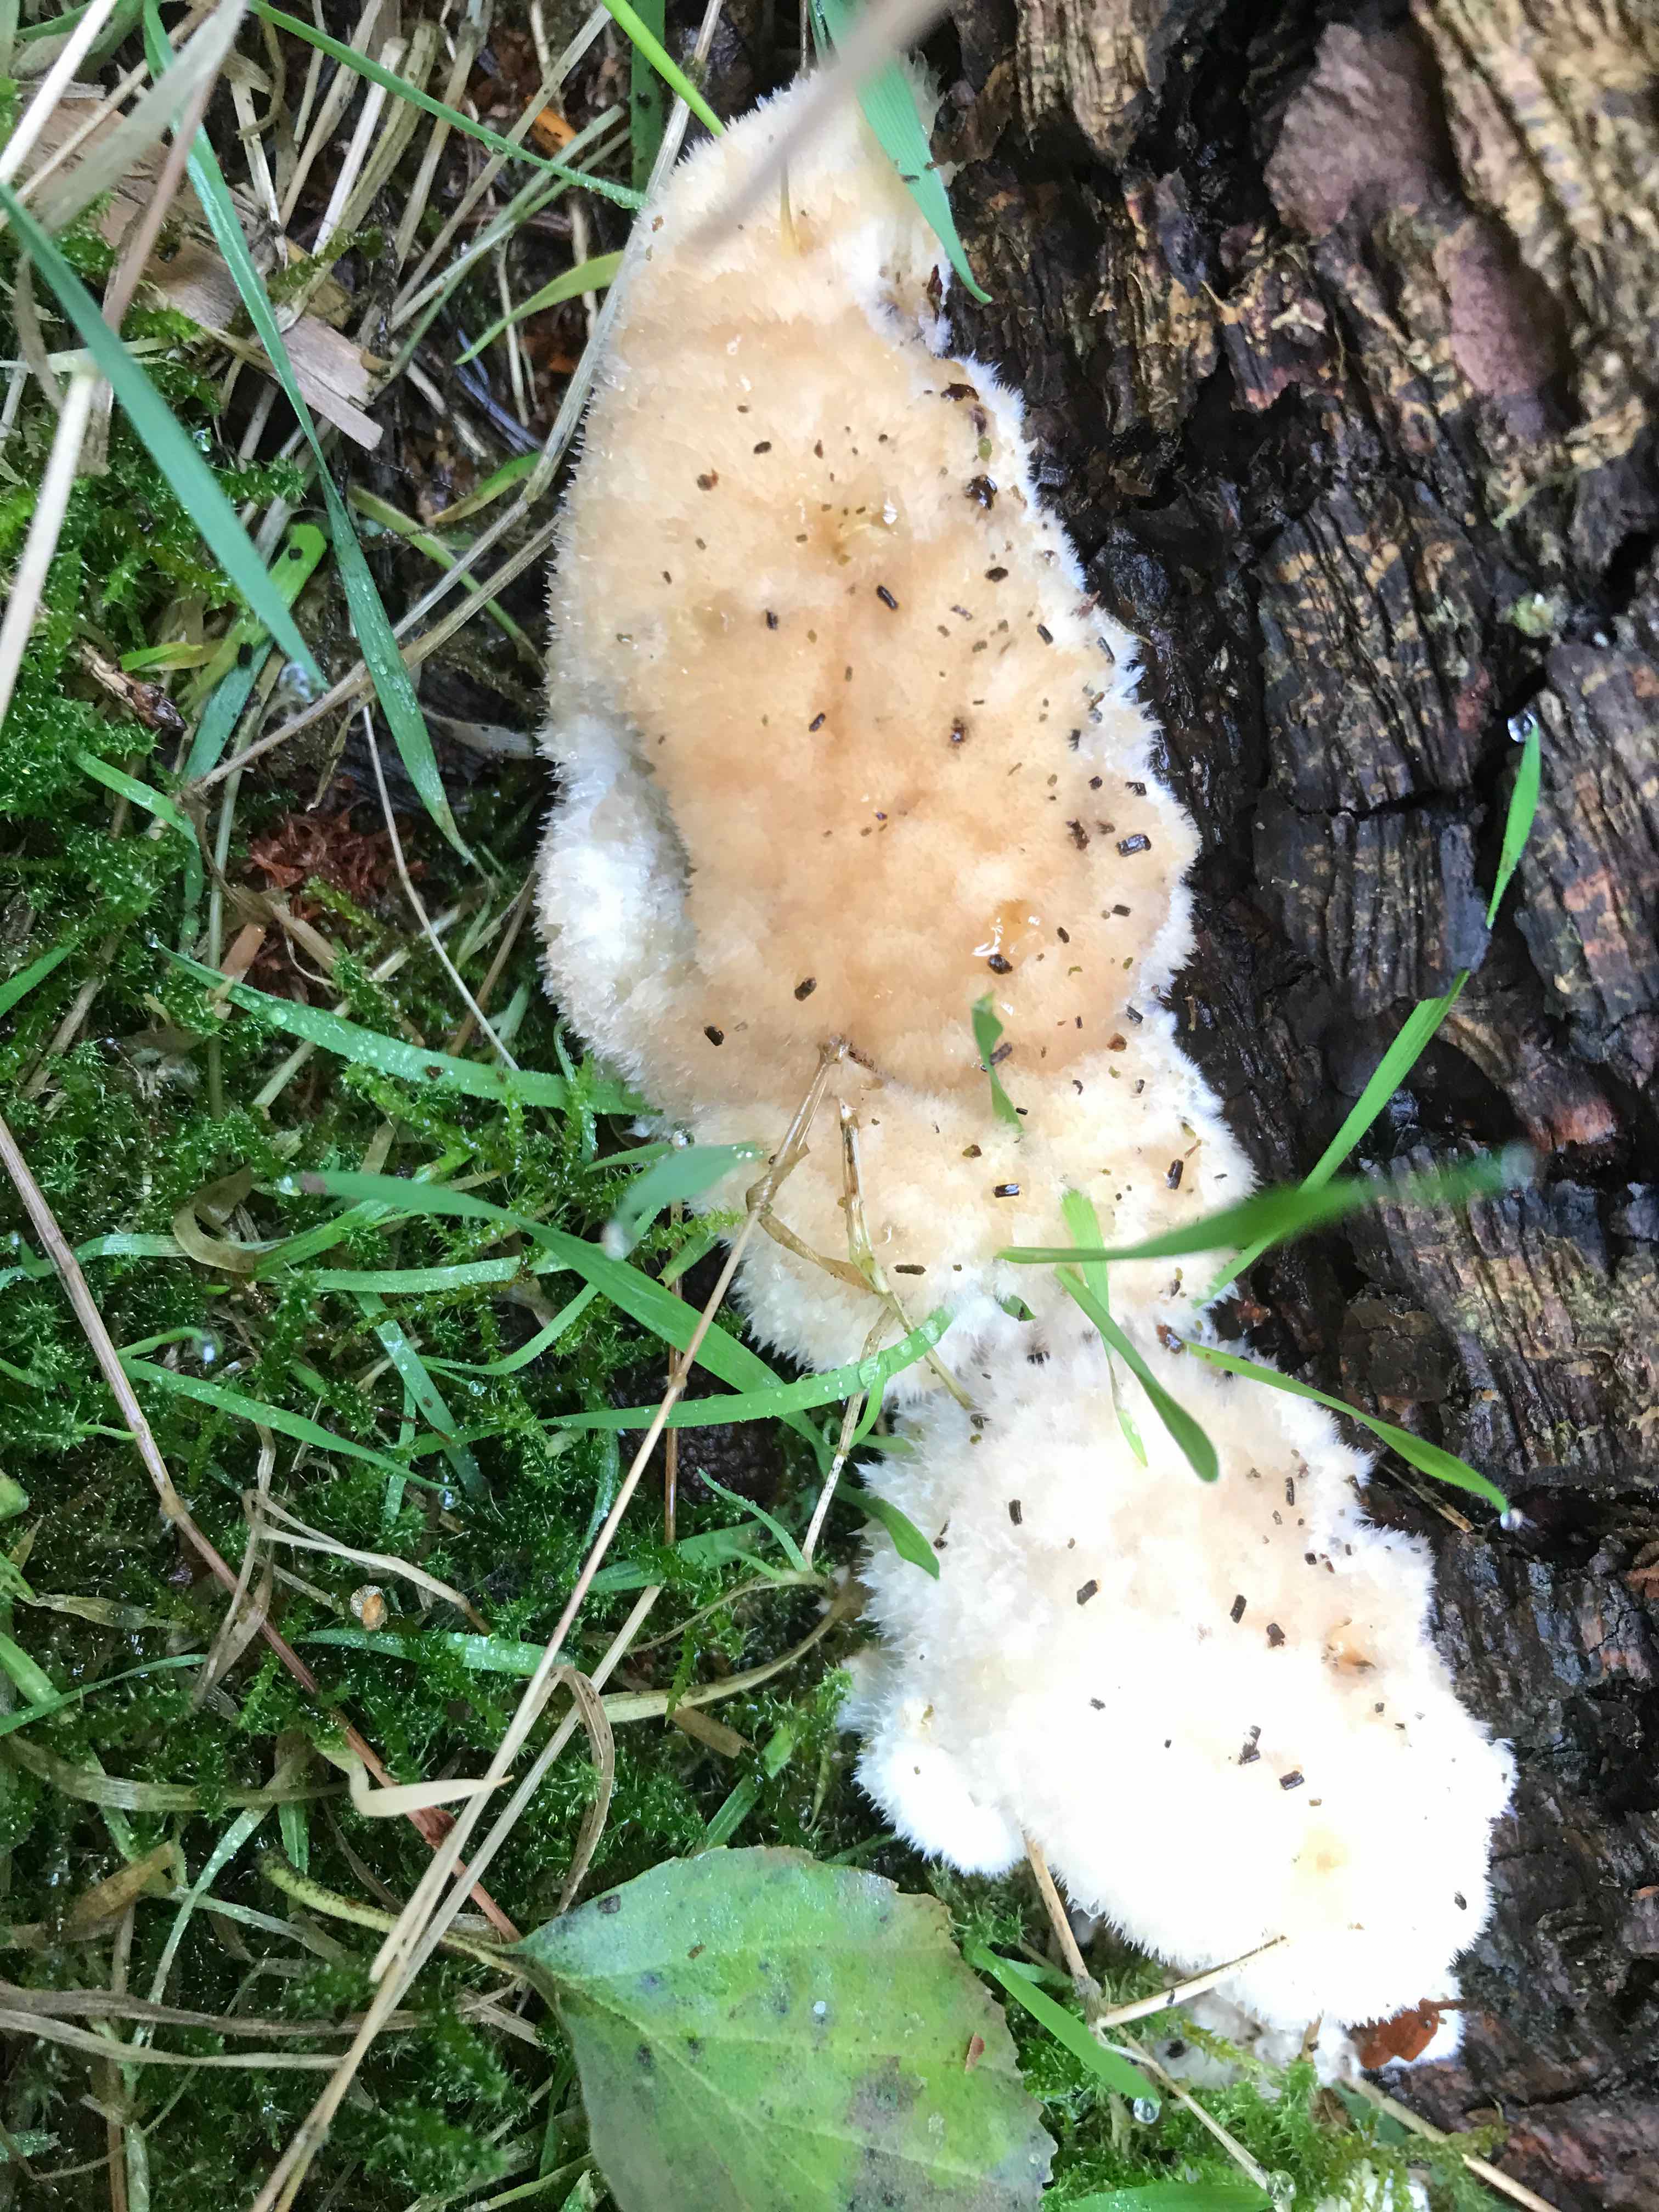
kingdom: Fungi
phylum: Basidiomycota
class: Agaricomycetes
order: Polyporales
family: Dacryobolaceae
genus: Postia
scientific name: Postia ptychogaster
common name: støvende kødporesvamp
